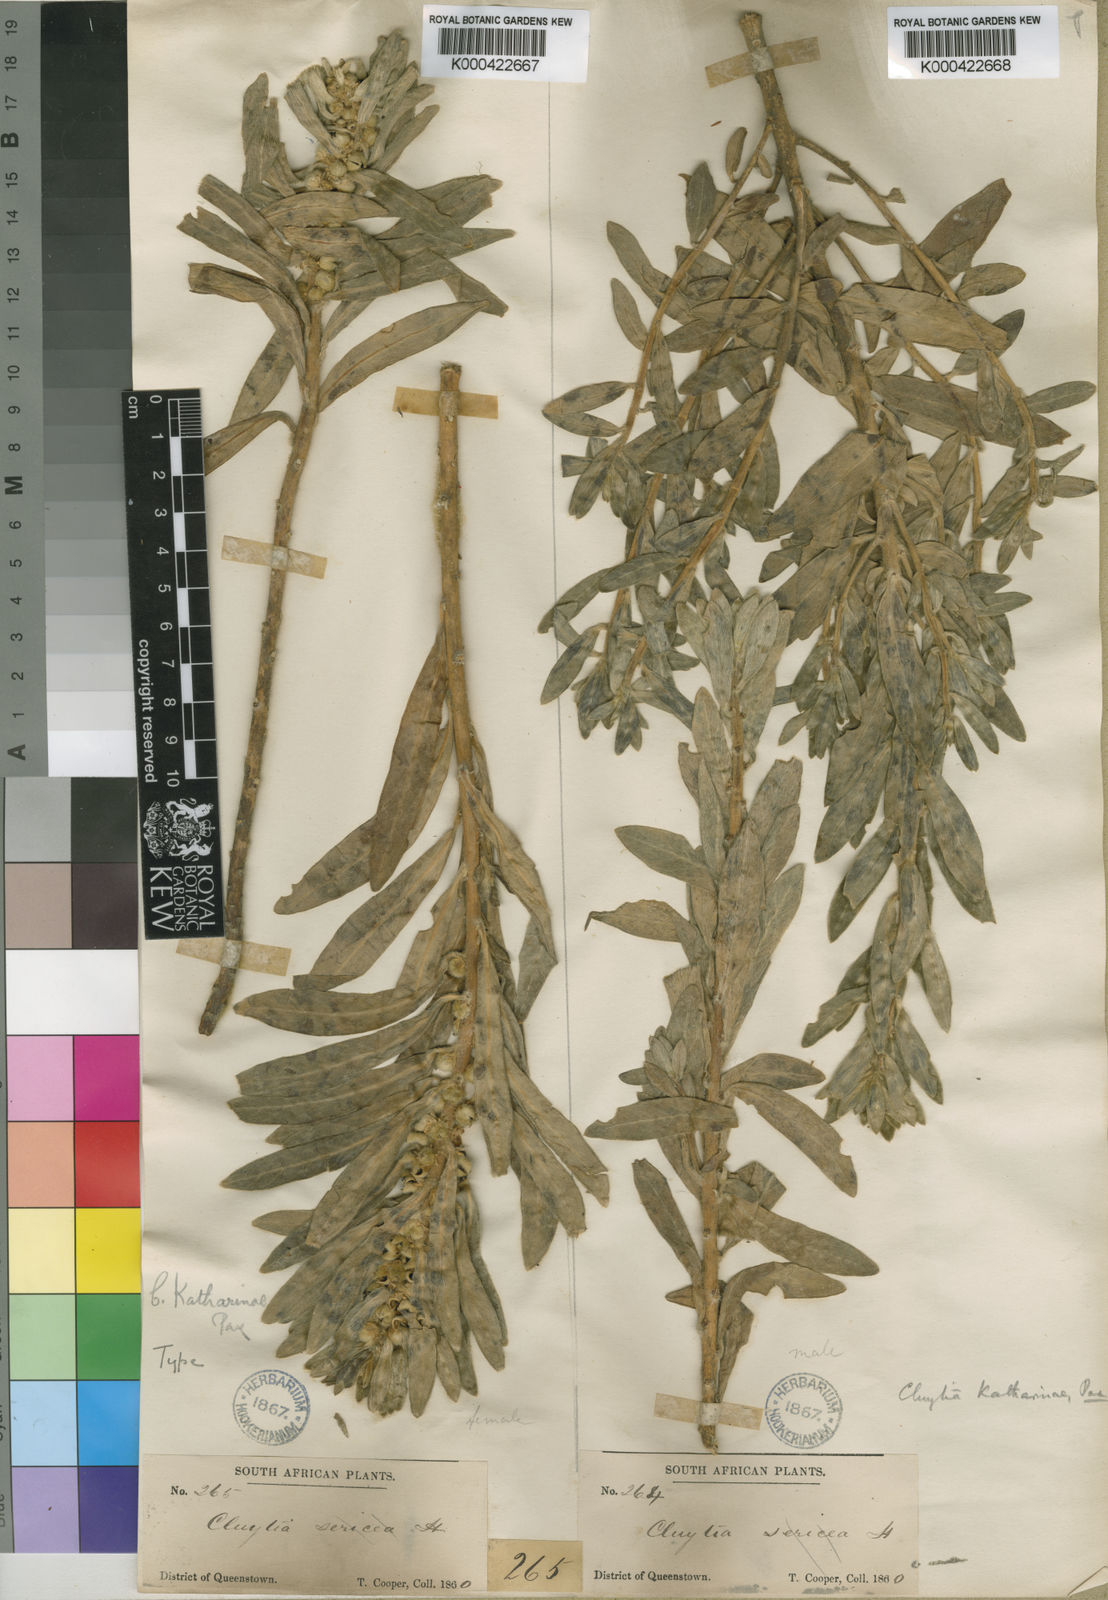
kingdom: Plantae
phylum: Tracheophyta
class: Magnoliopsida
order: Malpighiales
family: Peraceae
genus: Clutia
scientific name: Clutia katharinae
